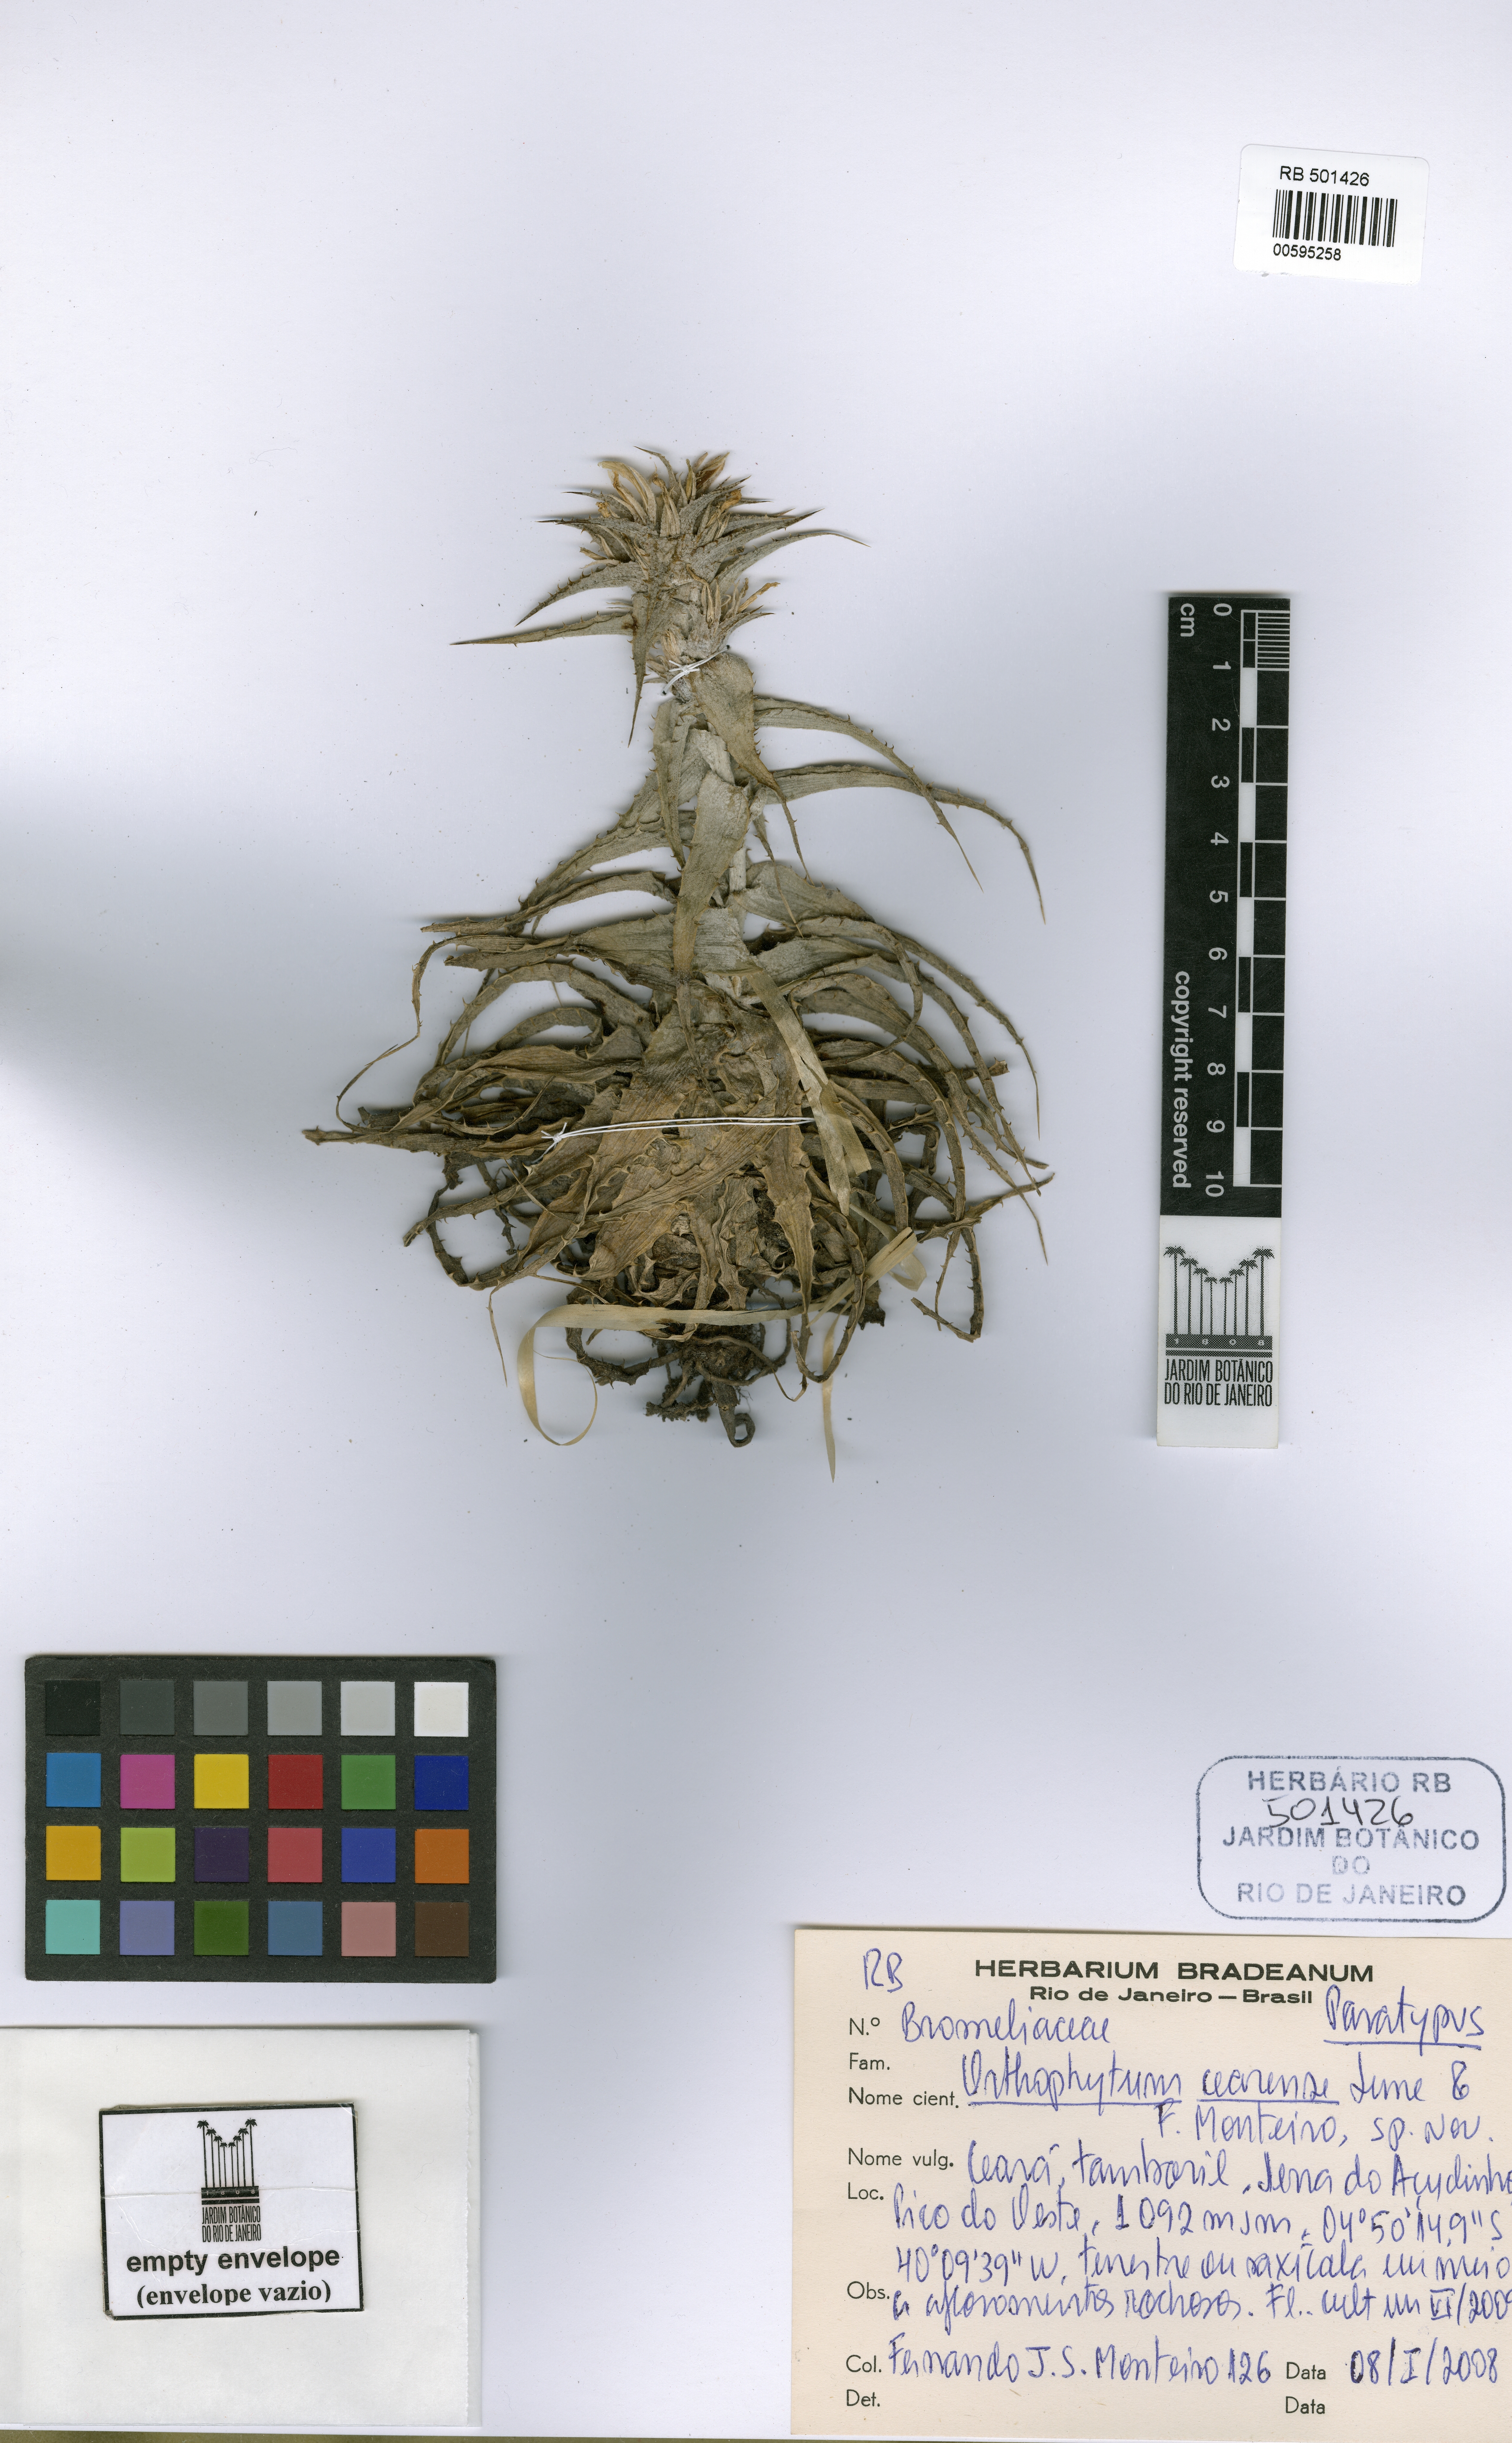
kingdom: Plantae
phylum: Tracheophyta
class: Liliopsida
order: Poales
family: Bromeliaceae
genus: Orthophytum
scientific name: Orthophytum cearense
